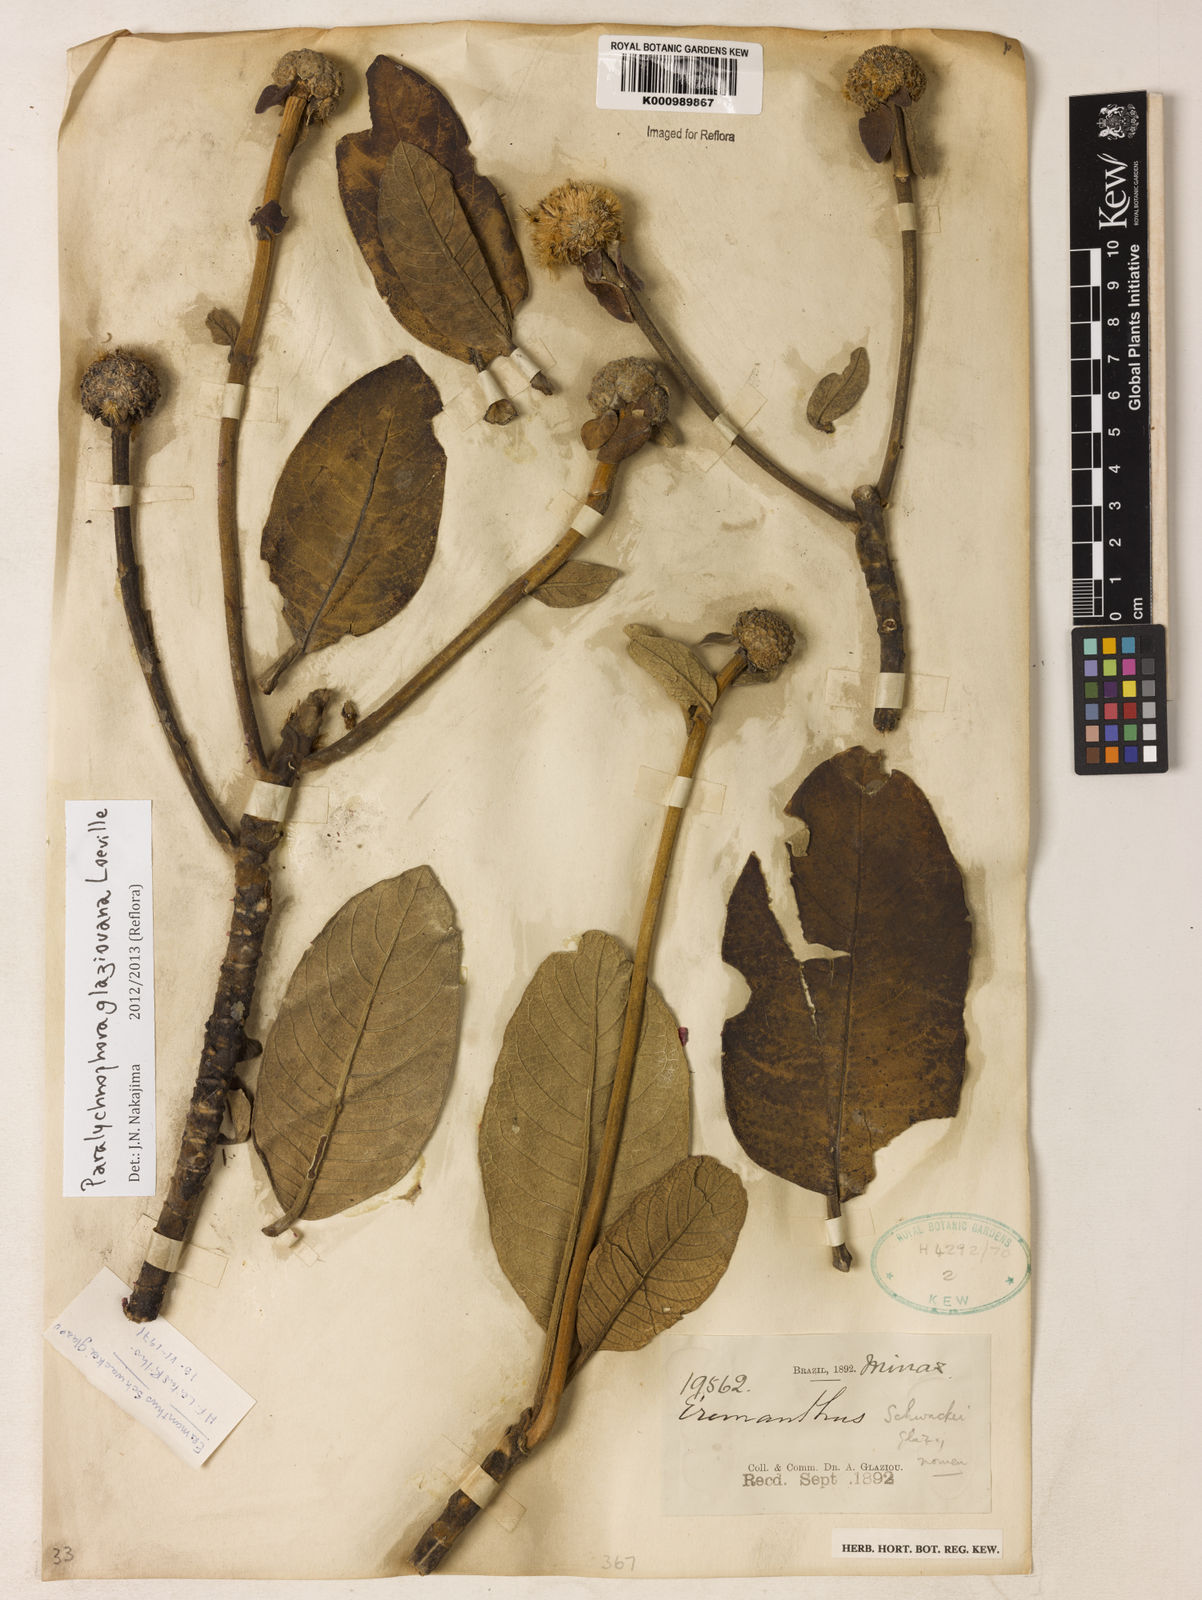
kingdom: Plantae
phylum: Tracheophyta
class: Magnoliopsida
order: Asterales
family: Asteraceae
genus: Paralychnophora
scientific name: Paralychnophora glaziouana
